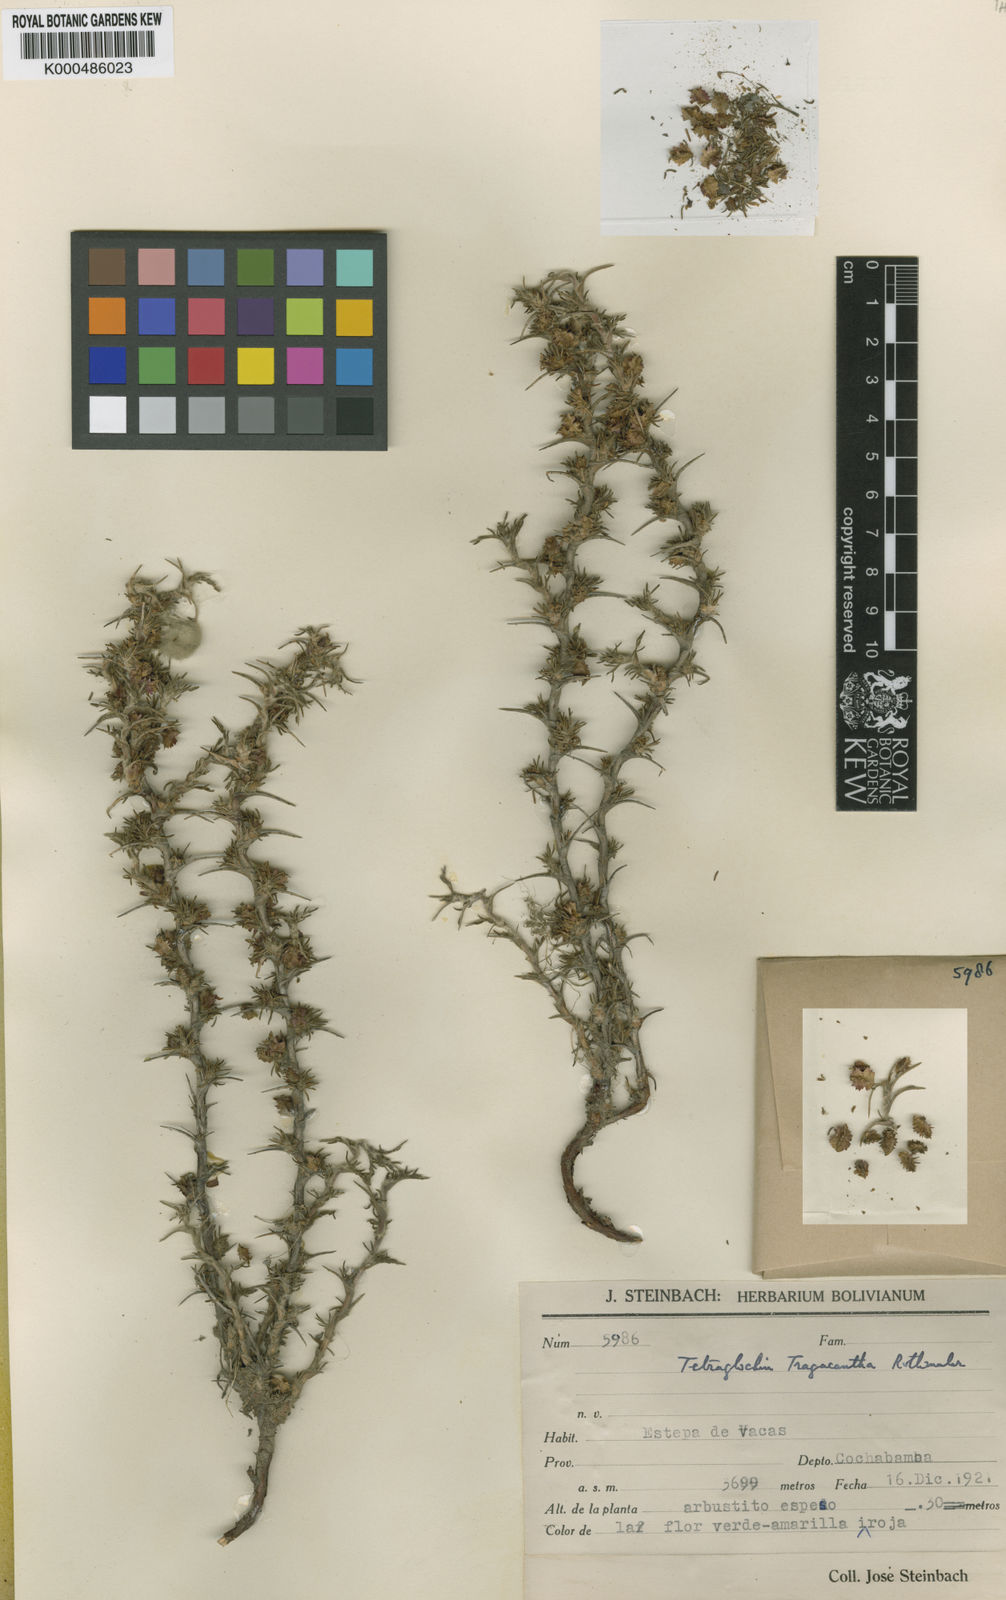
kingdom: Plantae
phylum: Tracheophyta
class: Magnoliopsida
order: Rosales
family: Rosaceae
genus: Margyricarpus
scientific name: Margyricarpus cristatus
